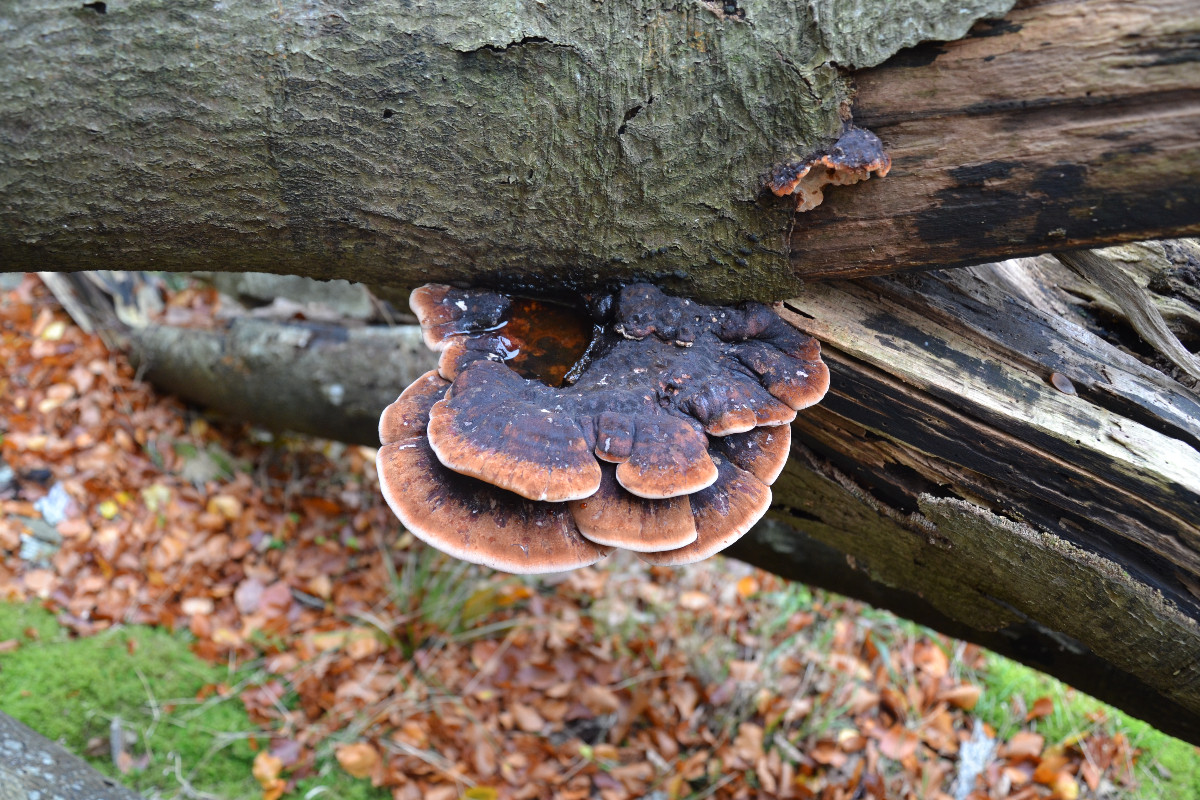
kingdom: Fungi
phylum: Basidiomycota
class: Agaricomycetes
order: Polyporales
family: Ischnodermataceae
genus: Ischnoderma
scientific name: Ischnoderma resinosum
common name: løv-tjæreporesvamp
